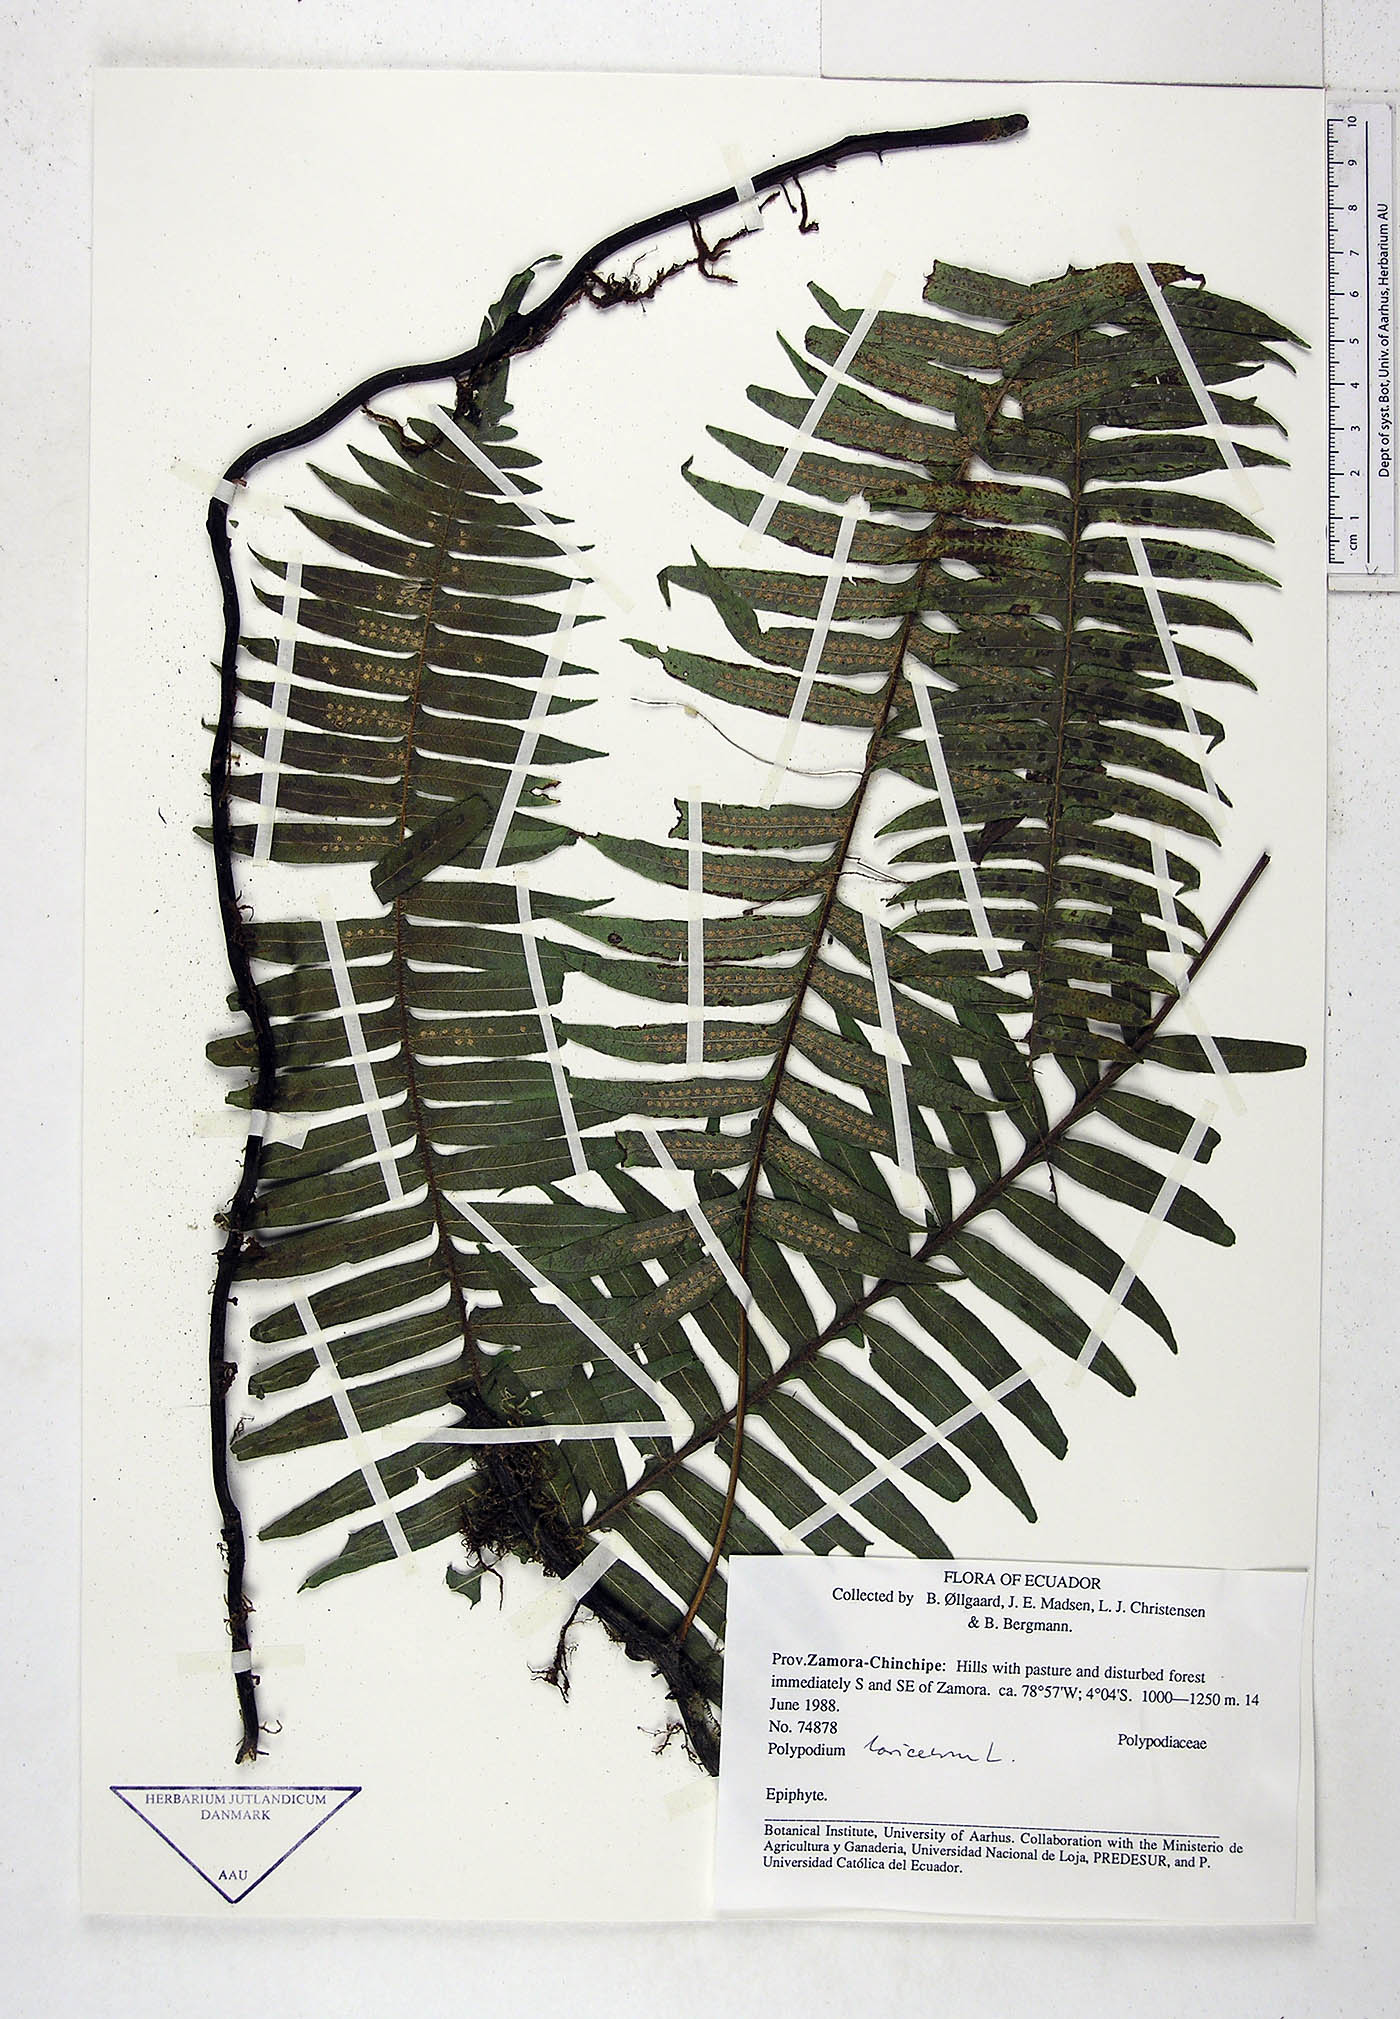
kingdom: Plantae
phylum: Tracheophyta
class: Polypodiopsida
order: Polypodiales
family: Polypodiaceae
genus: Serpocaulon
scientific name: Serpocaulon loriceum
